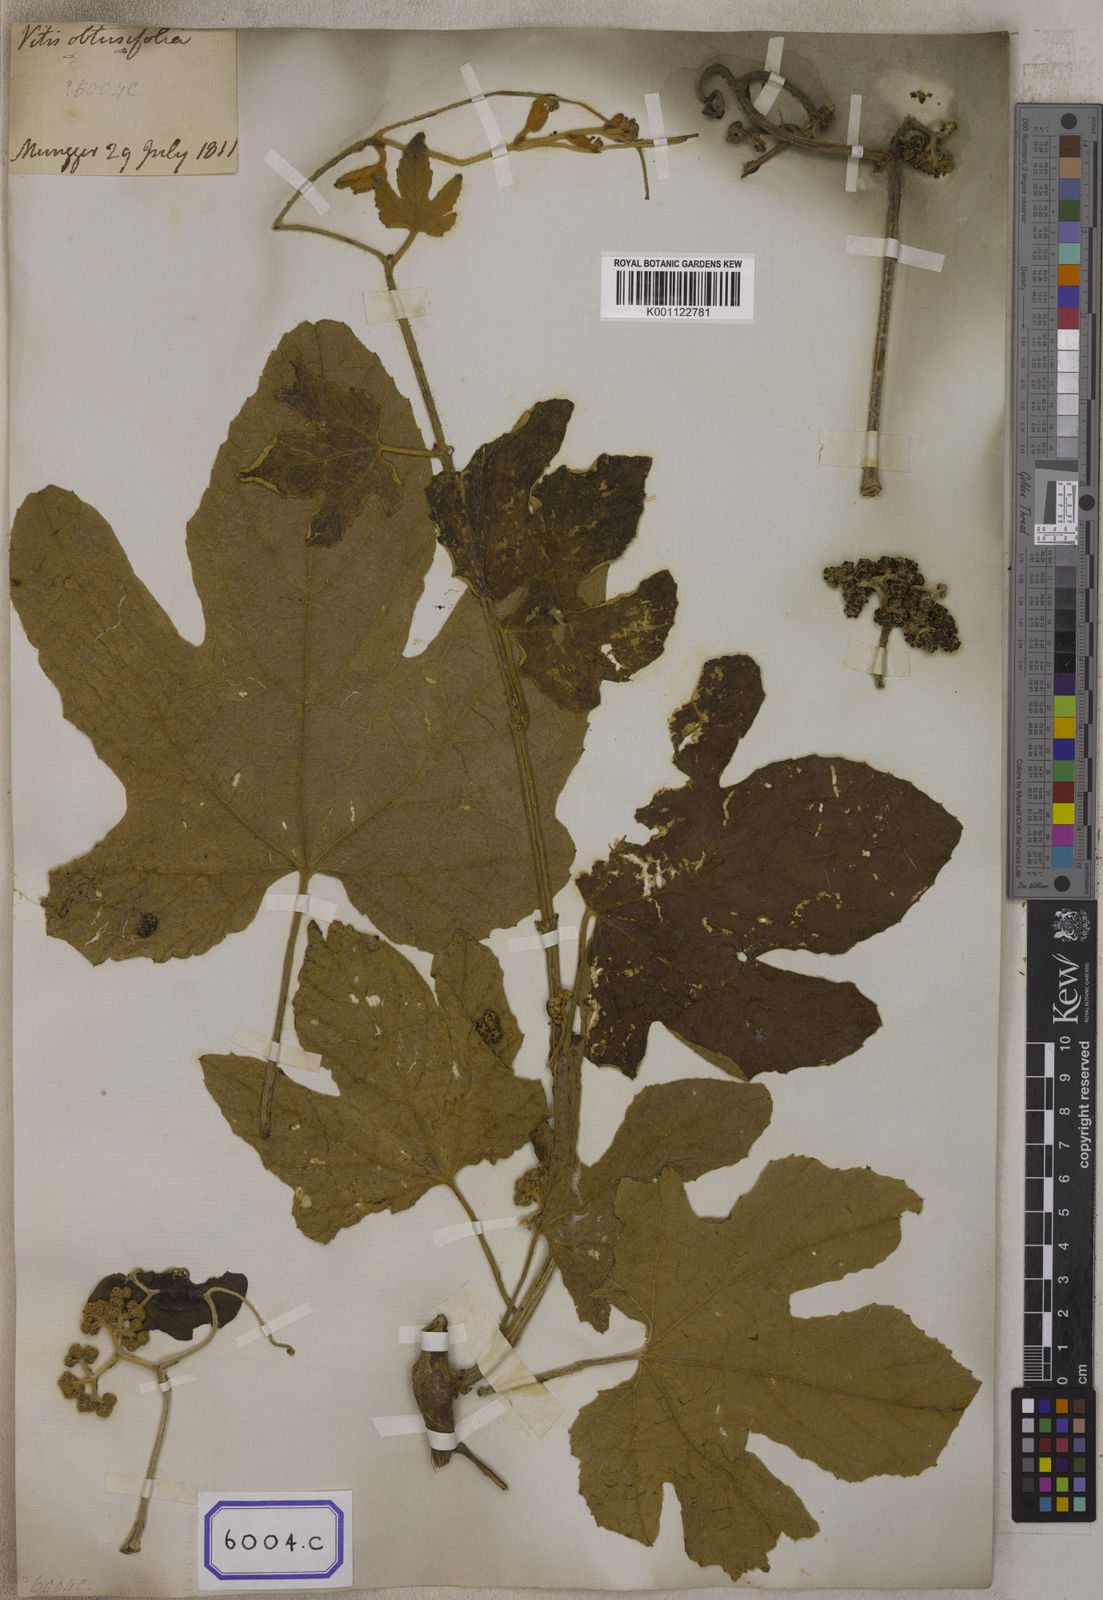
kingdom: Plantae
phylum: Tracheophyta
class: Magnoliopsida
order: Vitales
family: Vitaceae
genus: Ampelocissus
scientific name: Ampelocissus tomentosa
